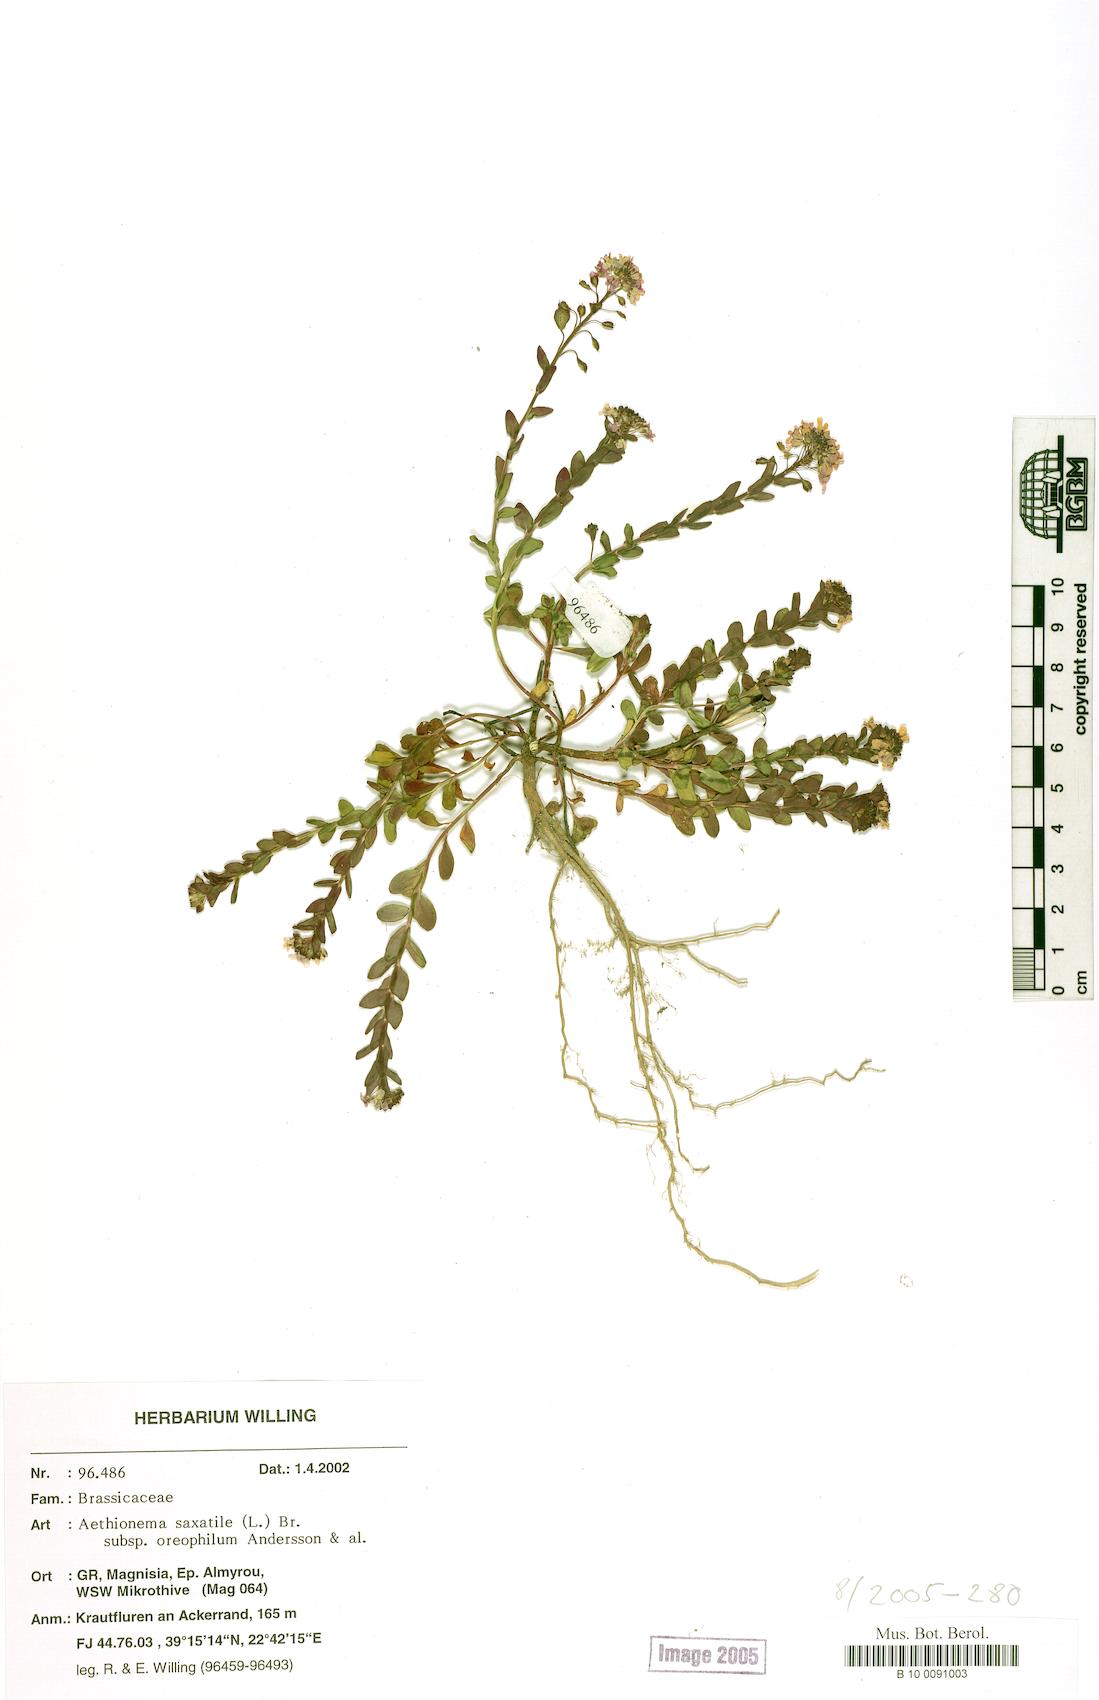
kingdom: Plantae
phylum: Tracheophyta
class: Magnoliopsida
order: Brassicales
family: Brassicaceae
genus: Aethionema
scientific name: Aethionema saxatile
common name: Burnt candytuft
